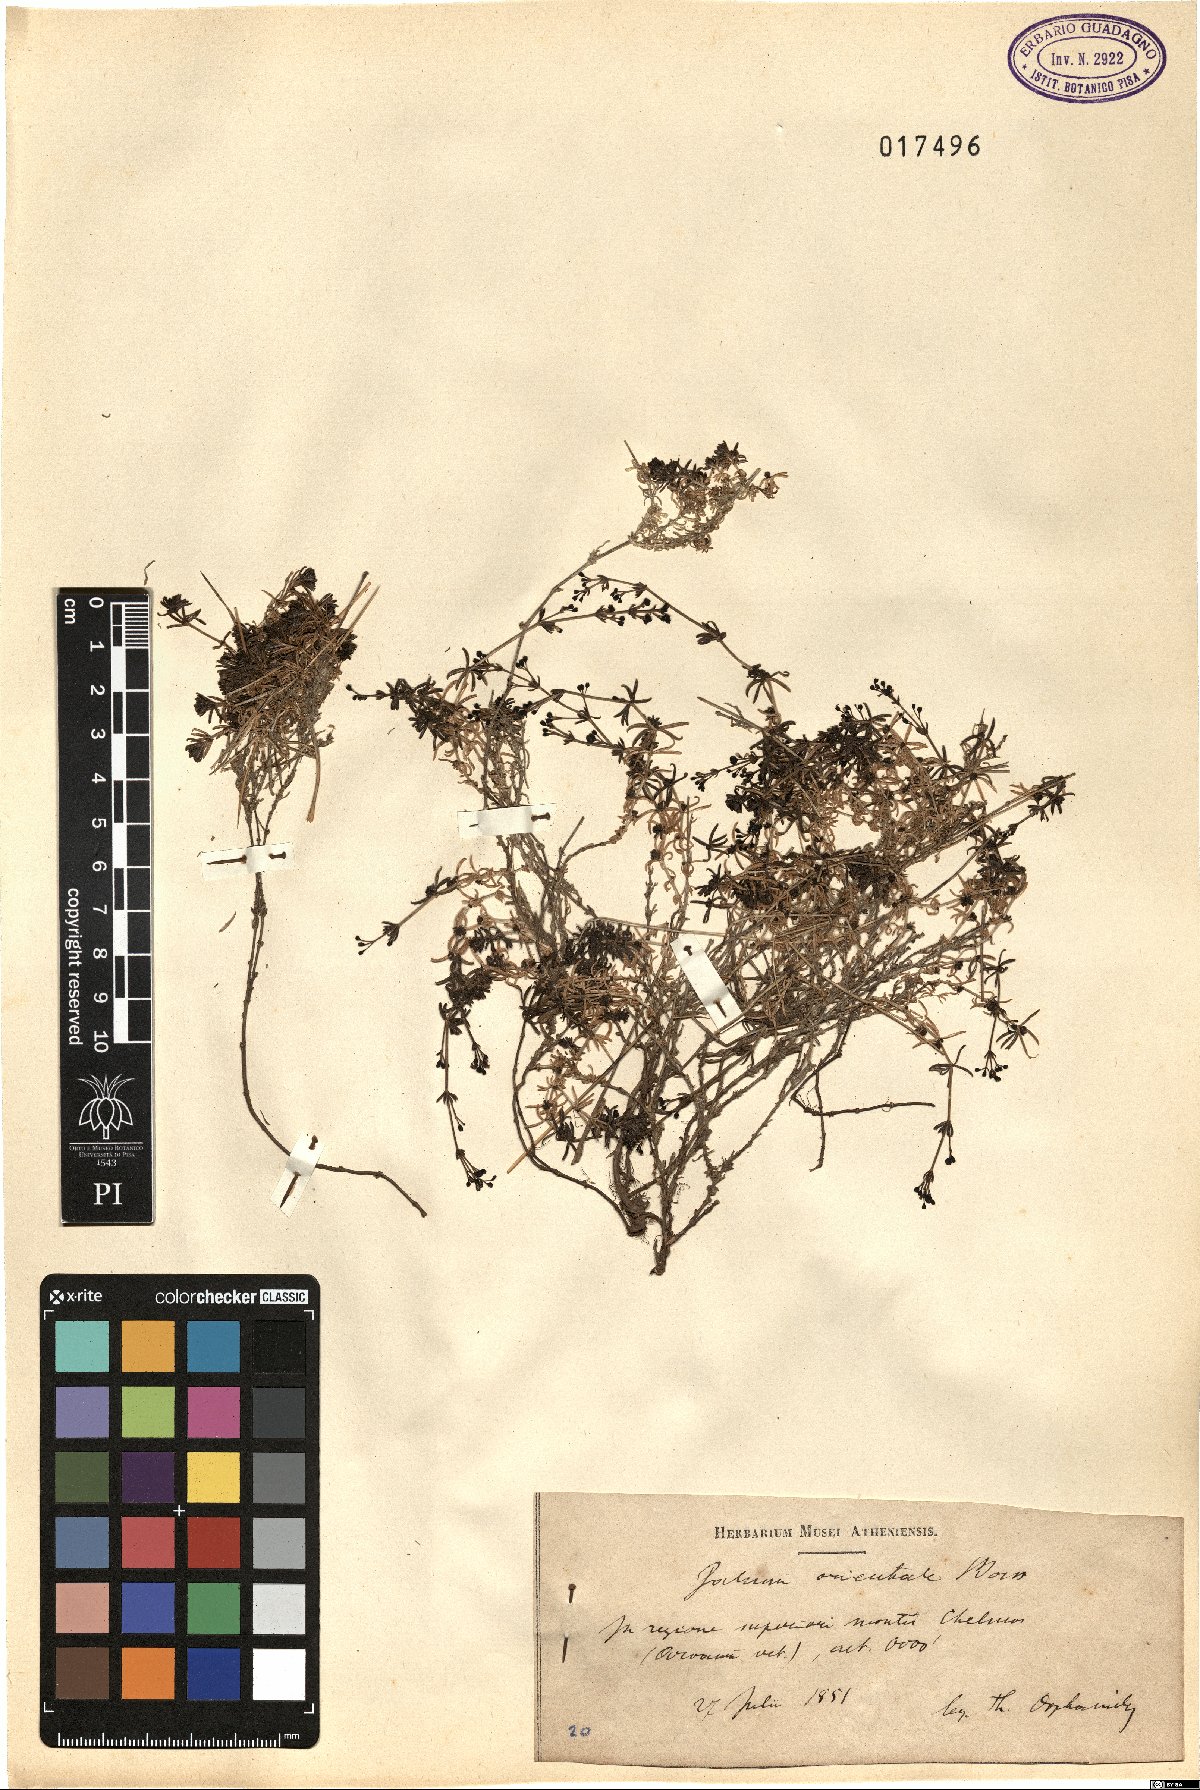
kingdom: Plantae
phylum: Tracheophyta
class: Magnoliopsida
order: Gentianales
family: Rubiaceae
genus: Galium
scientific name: Galium incanum
